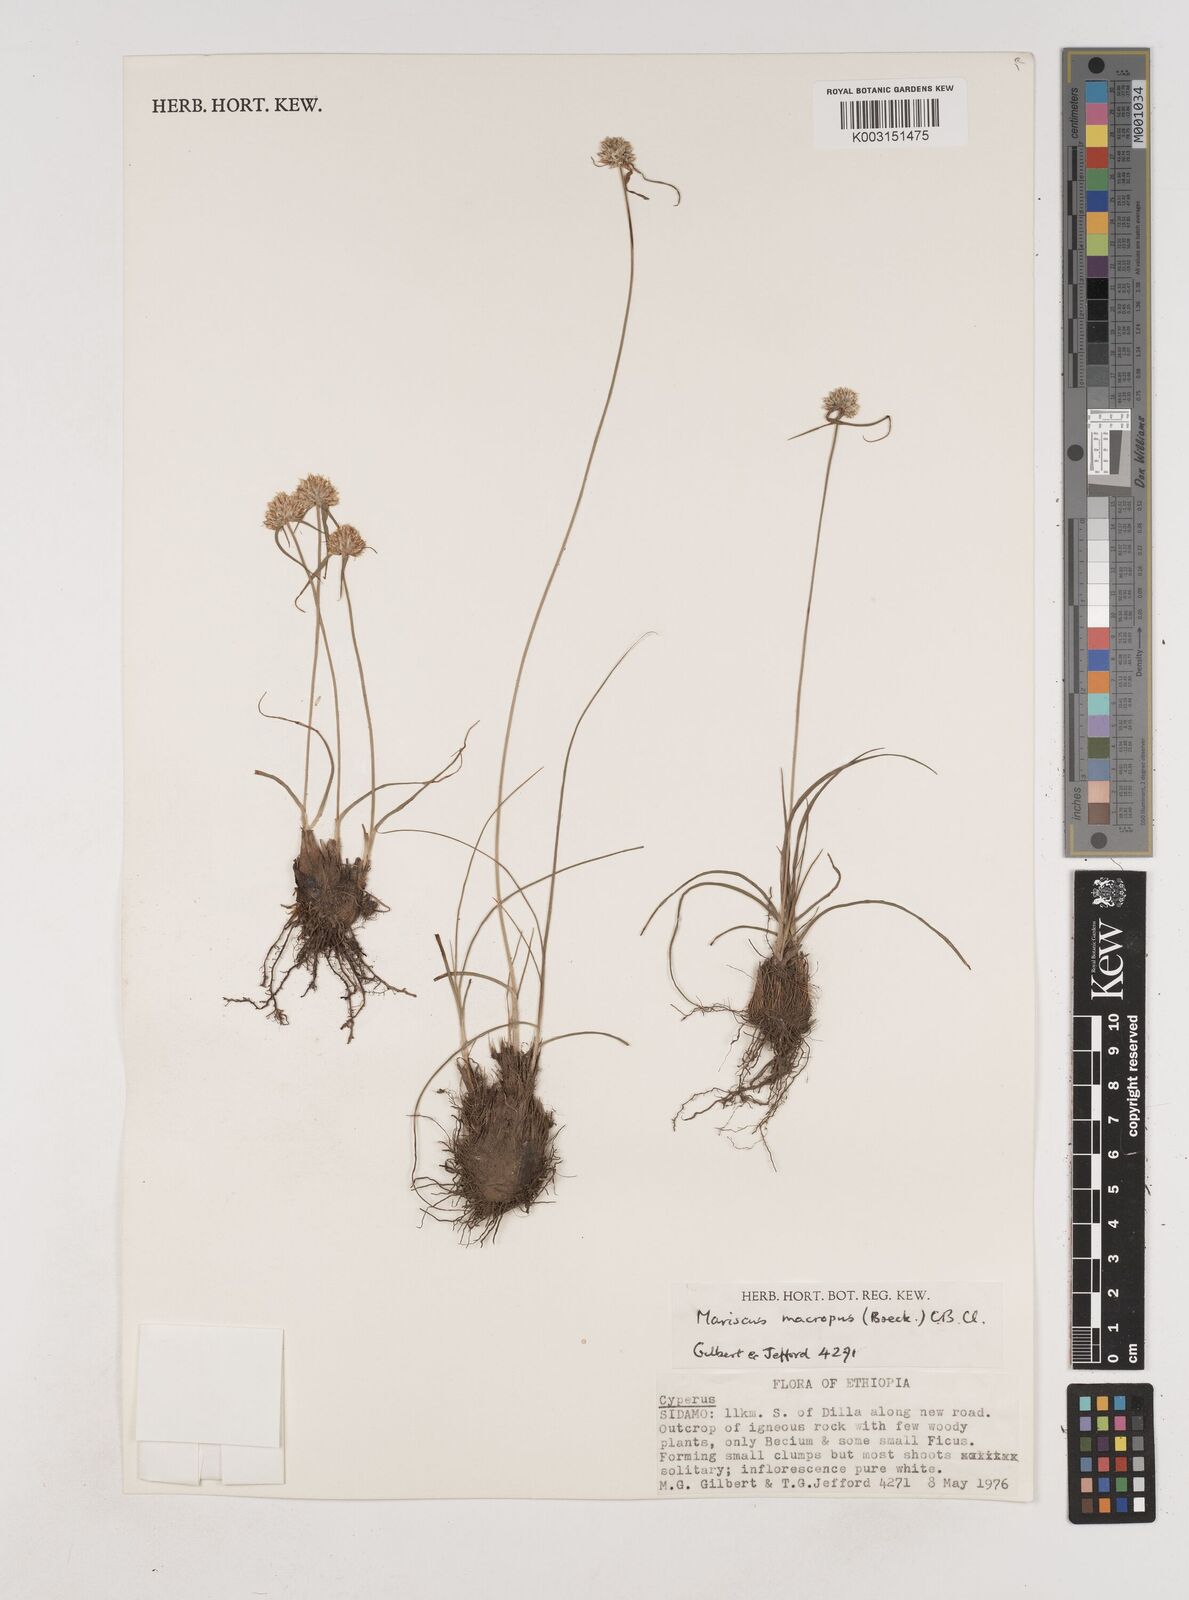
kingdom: Plantae
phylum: Tracheophyta
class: Liliopsida
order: Poales
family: Cyperaceae
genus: Cyperus
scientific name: Cyperus mollipes
